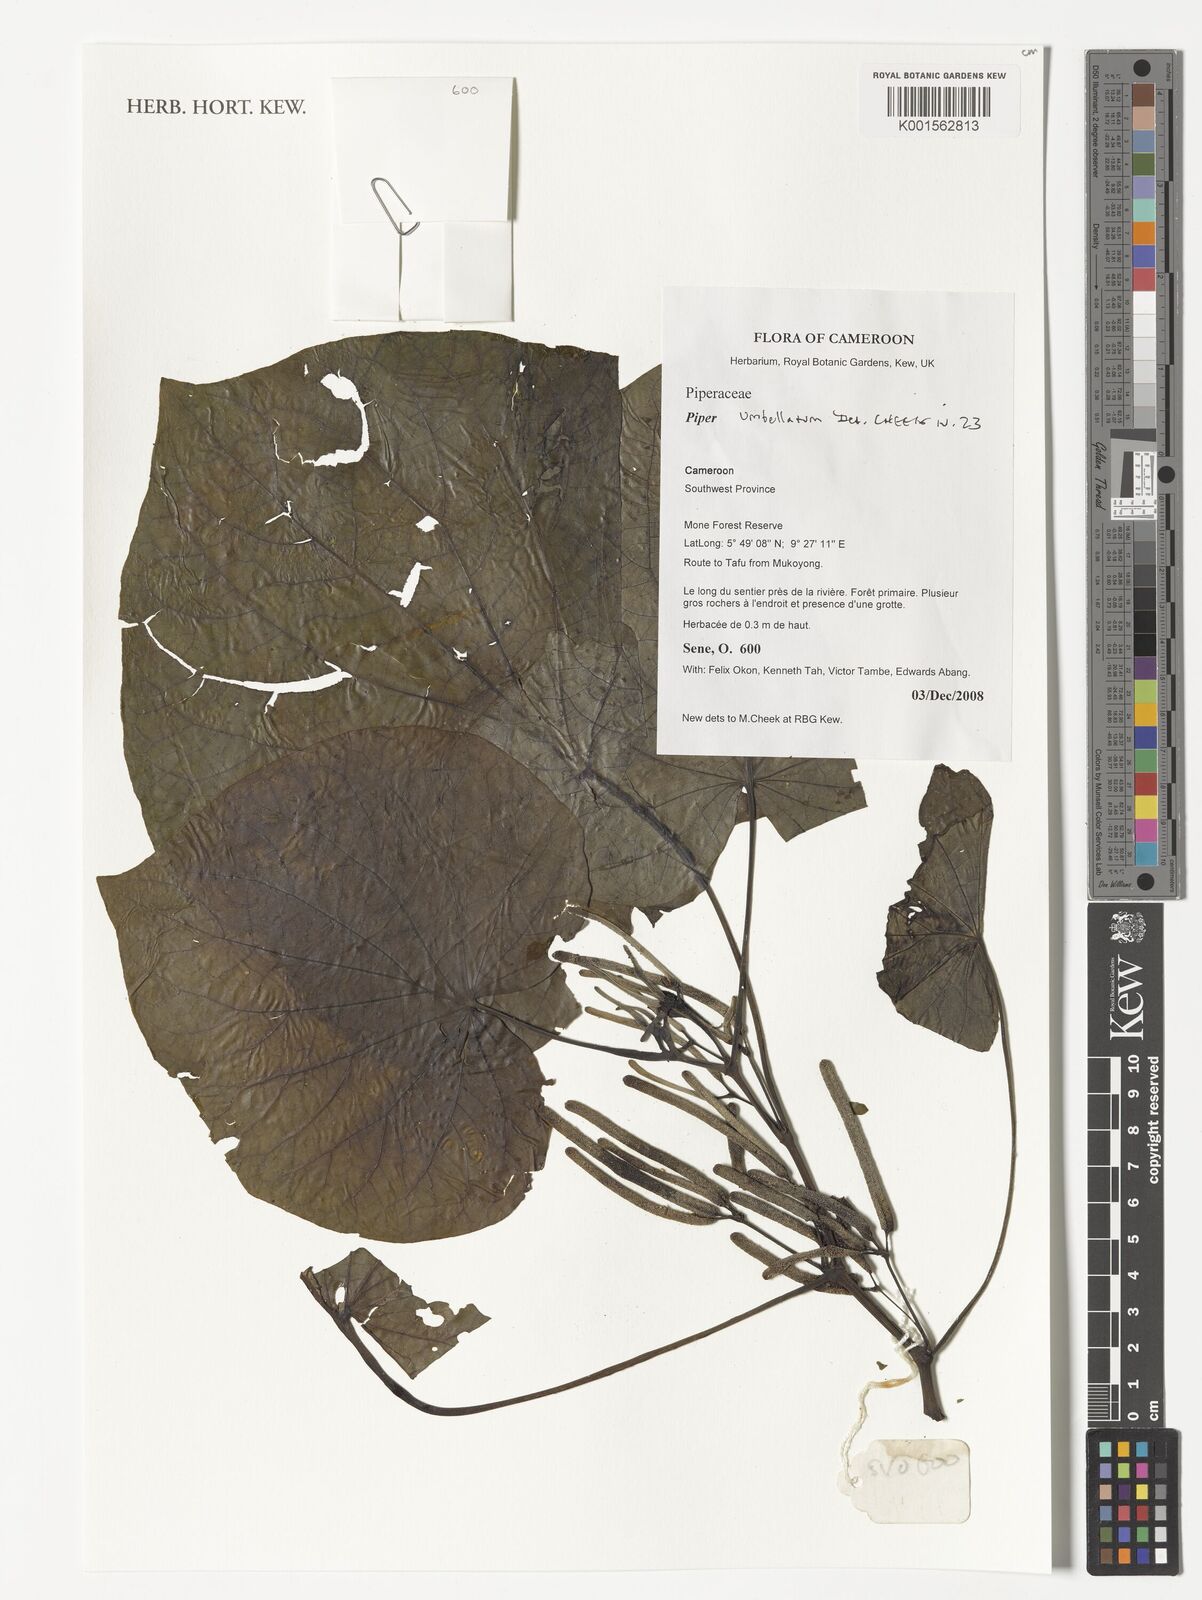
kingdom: Plantae
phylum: Tracheophyta
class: Magnoliopsida
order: Piperales
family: Piperaceae
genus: Piper
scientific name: Piper umbellatum
